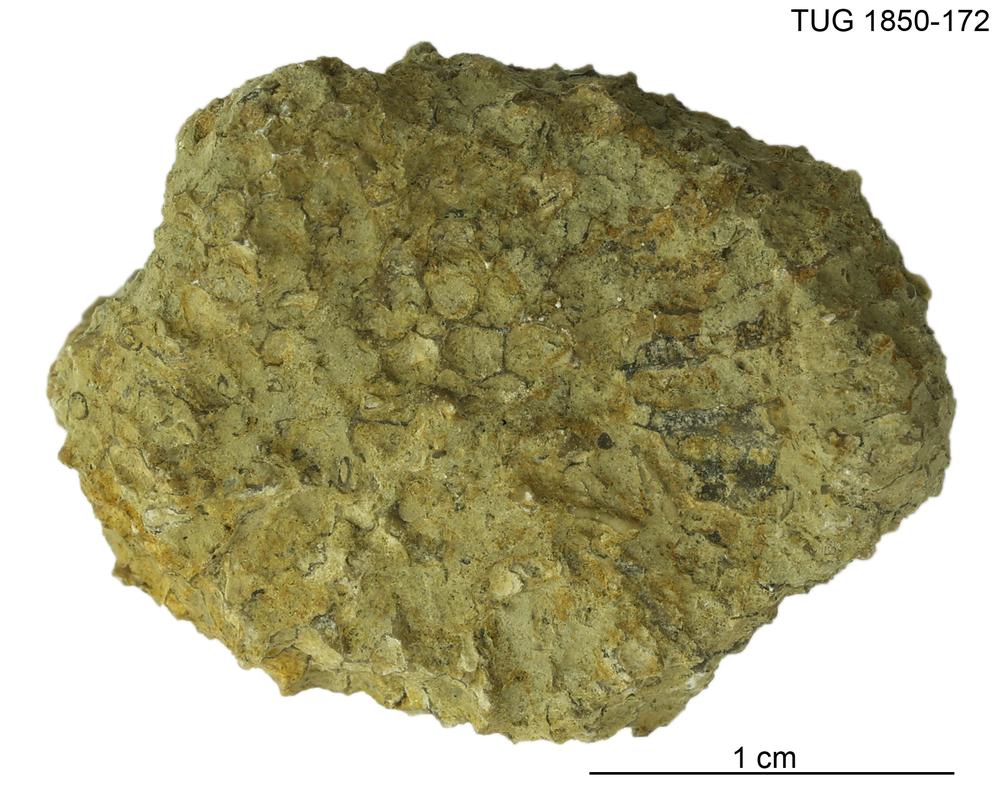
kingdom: Animalia
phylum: Cnidaria
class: Anthozoa
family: Favositidae
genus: Favosites
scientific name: Favosites
